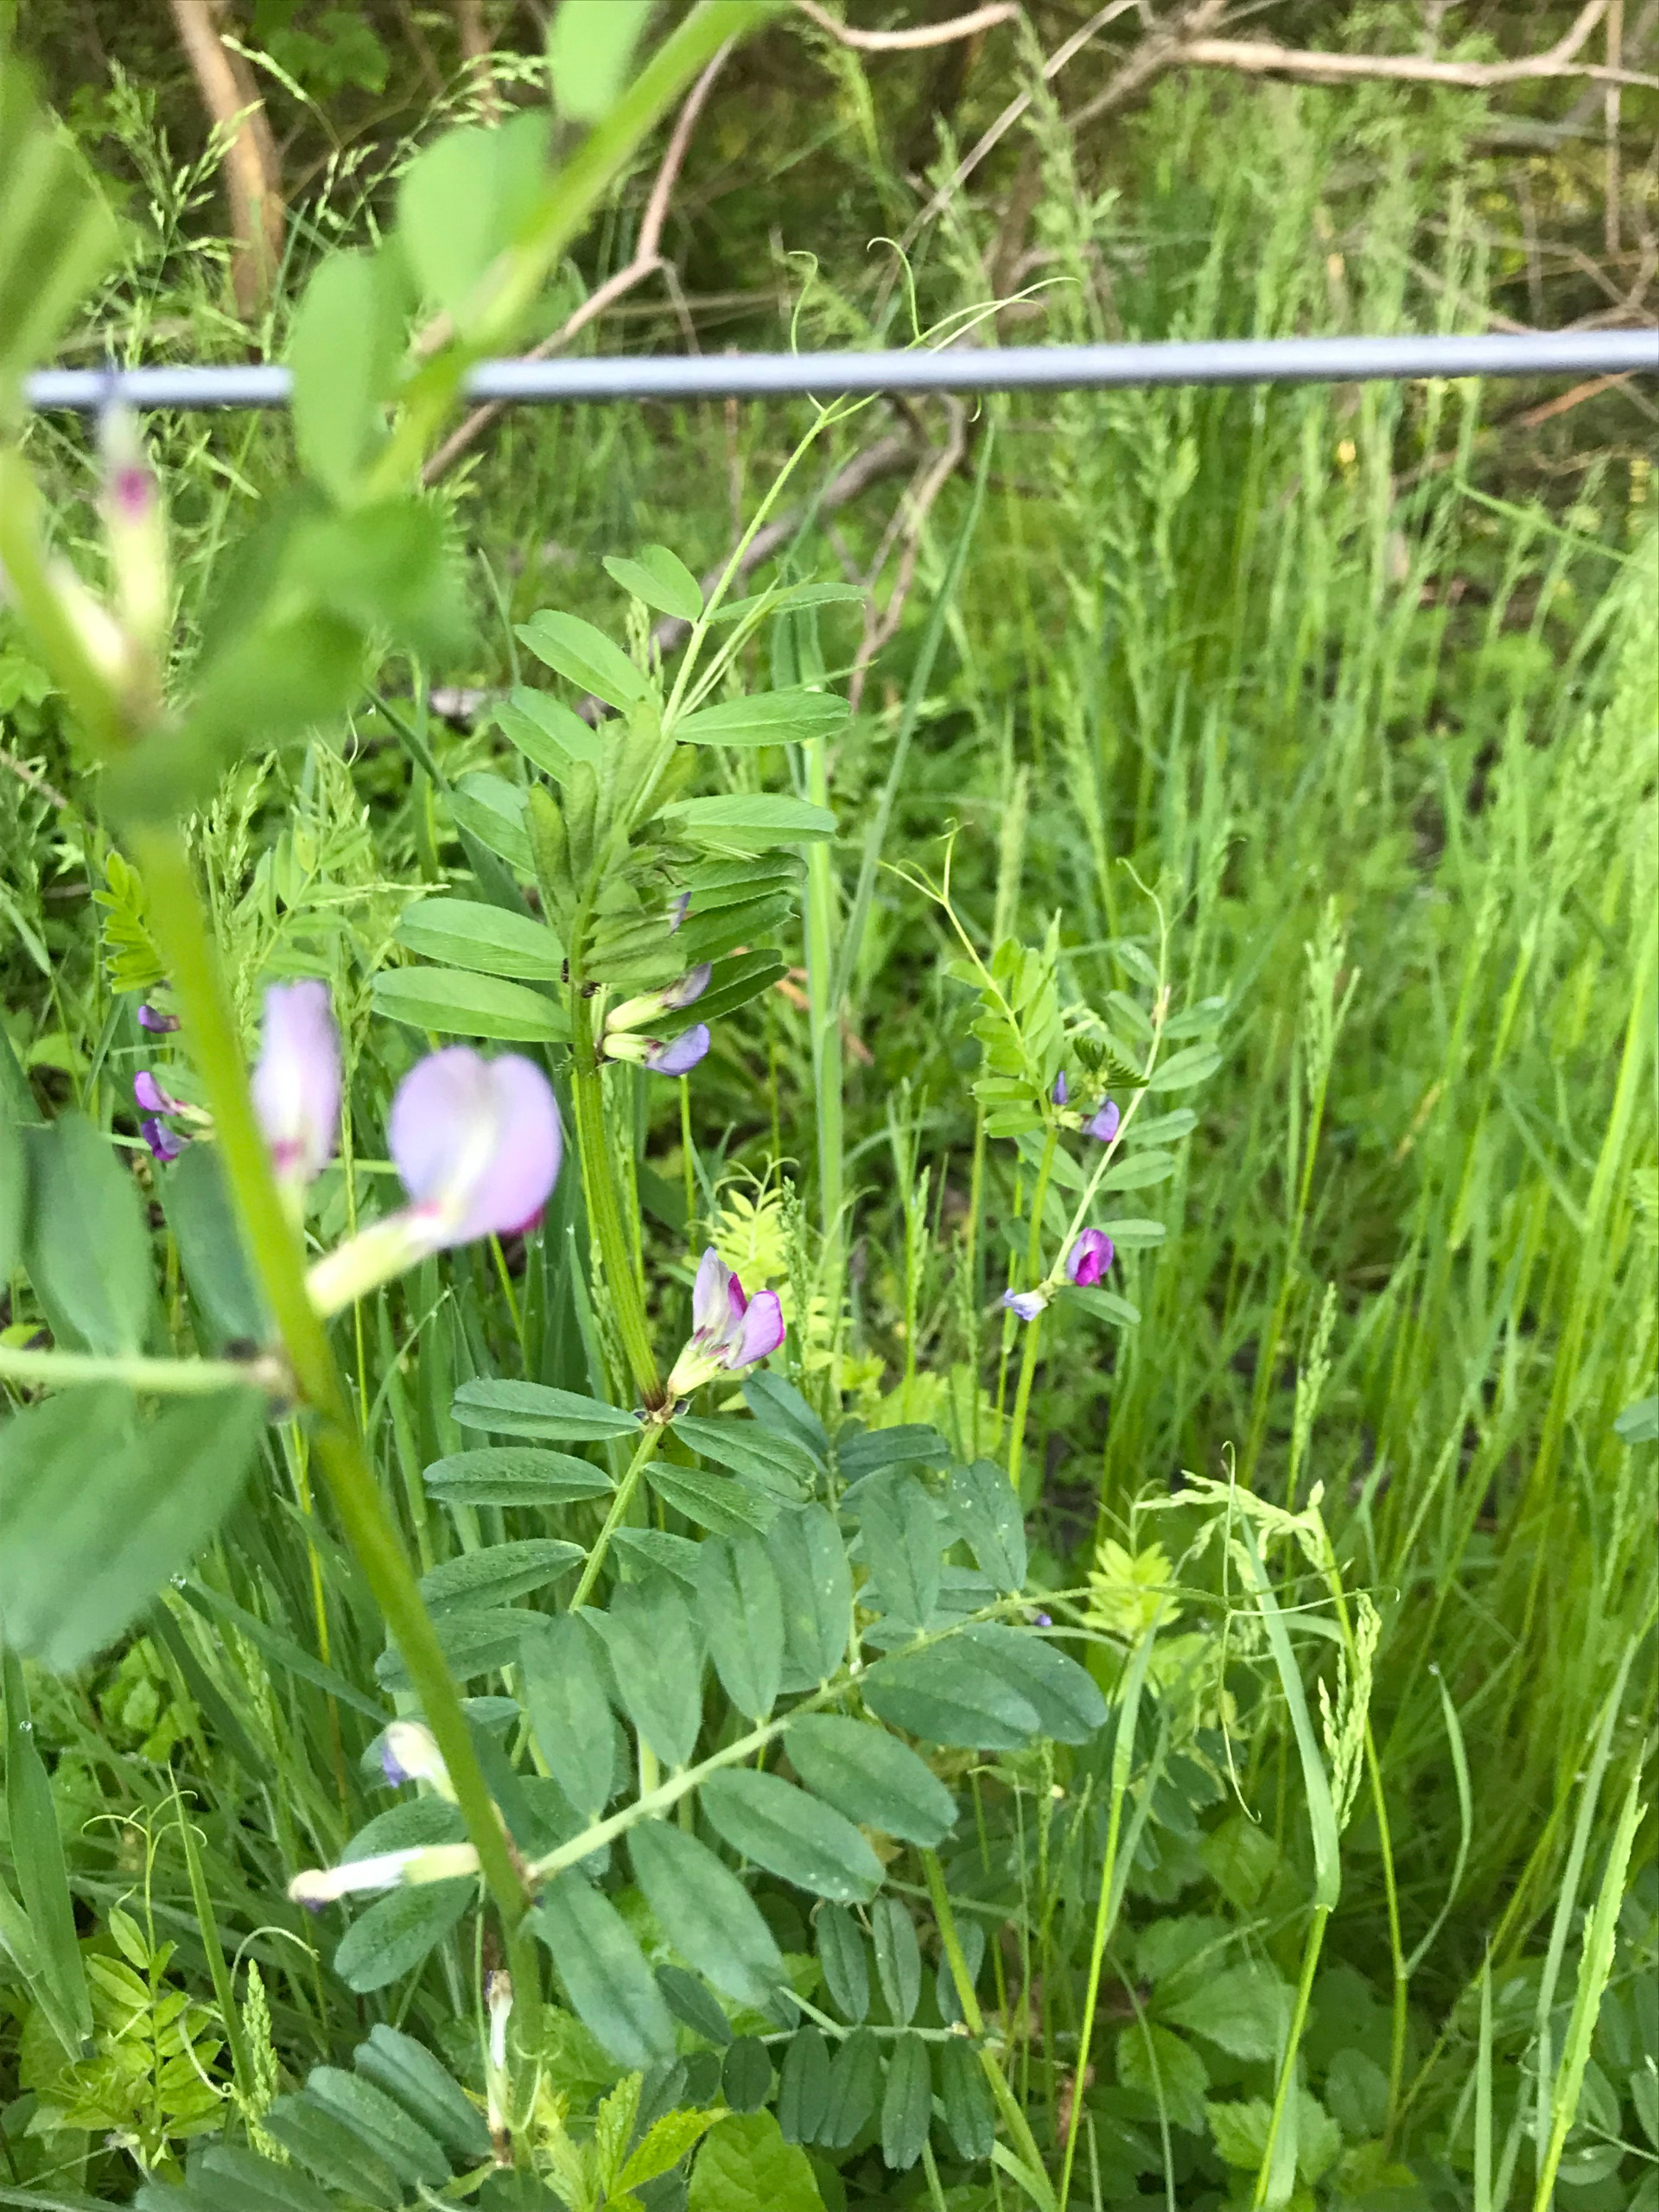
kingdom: Plantae
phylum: Tracheophyta
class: Magnoliopsida
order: Fabales
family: Fabaceae
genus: Vicia
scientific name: Vicia sepium
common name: Gærde-vikke
